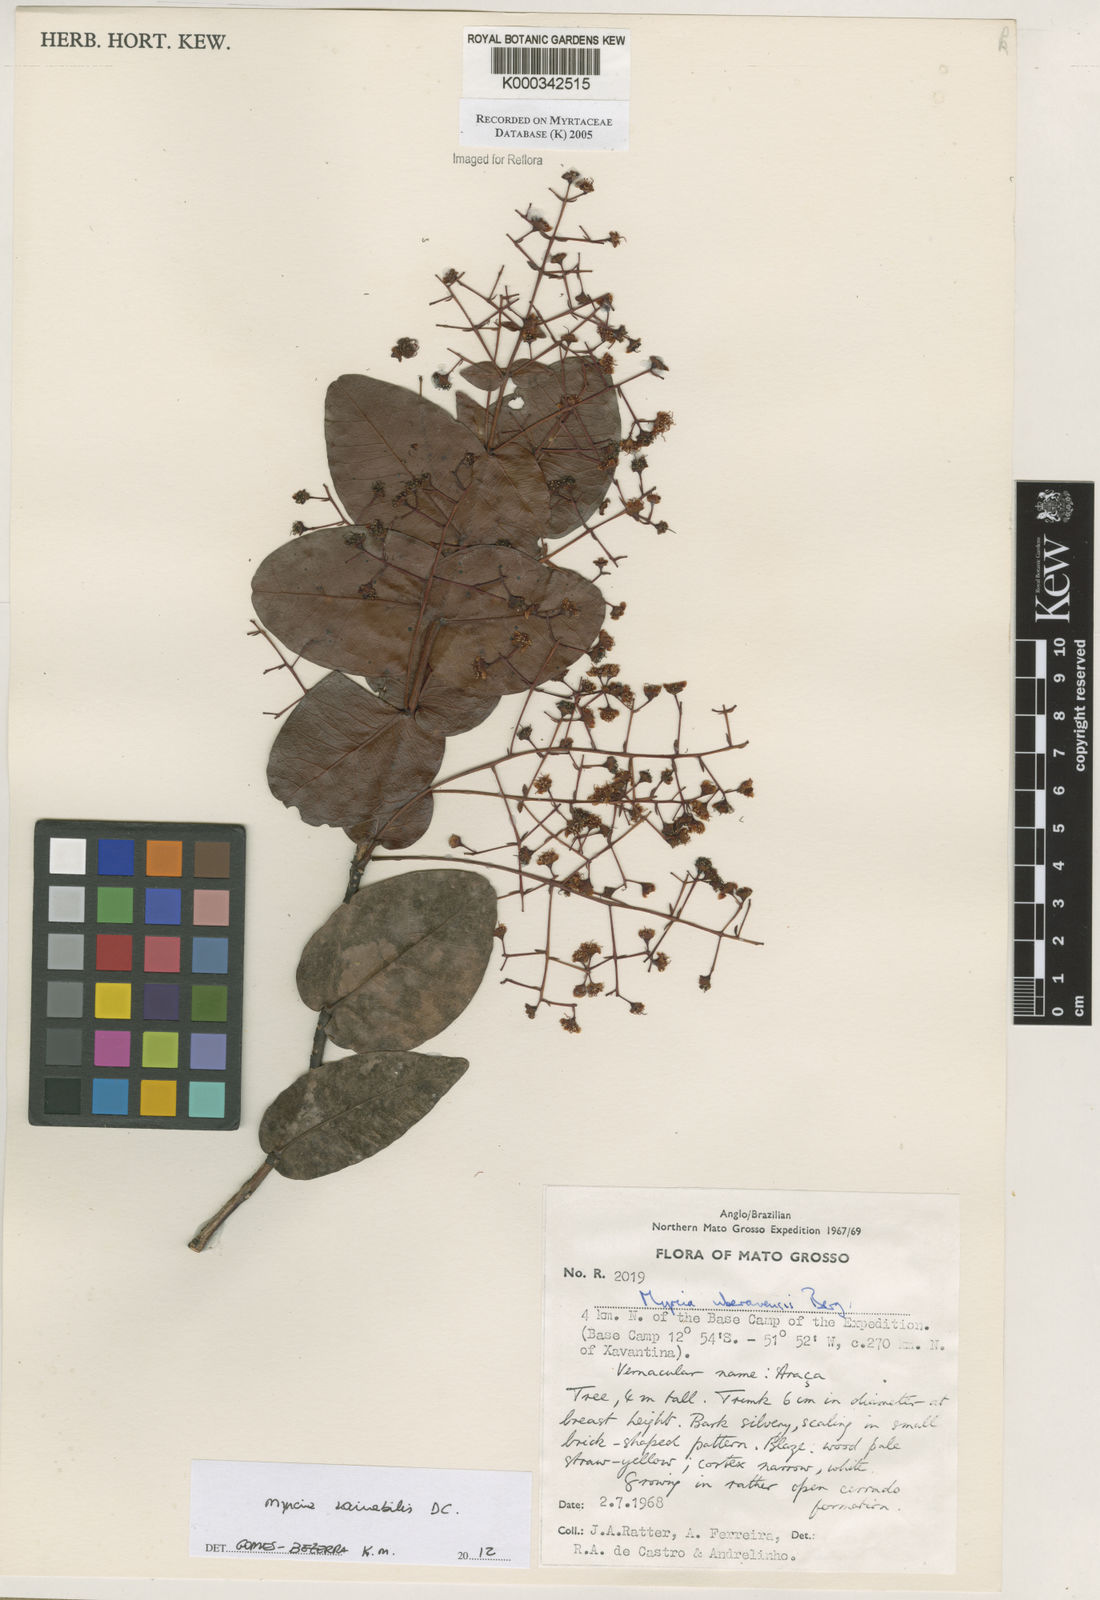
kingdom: Plantae
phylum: Tracheophyta
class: Magnoliopsida
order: Myrtales
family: Myrtaceae
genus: Myrcia
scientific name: Myrcia uberavensis
